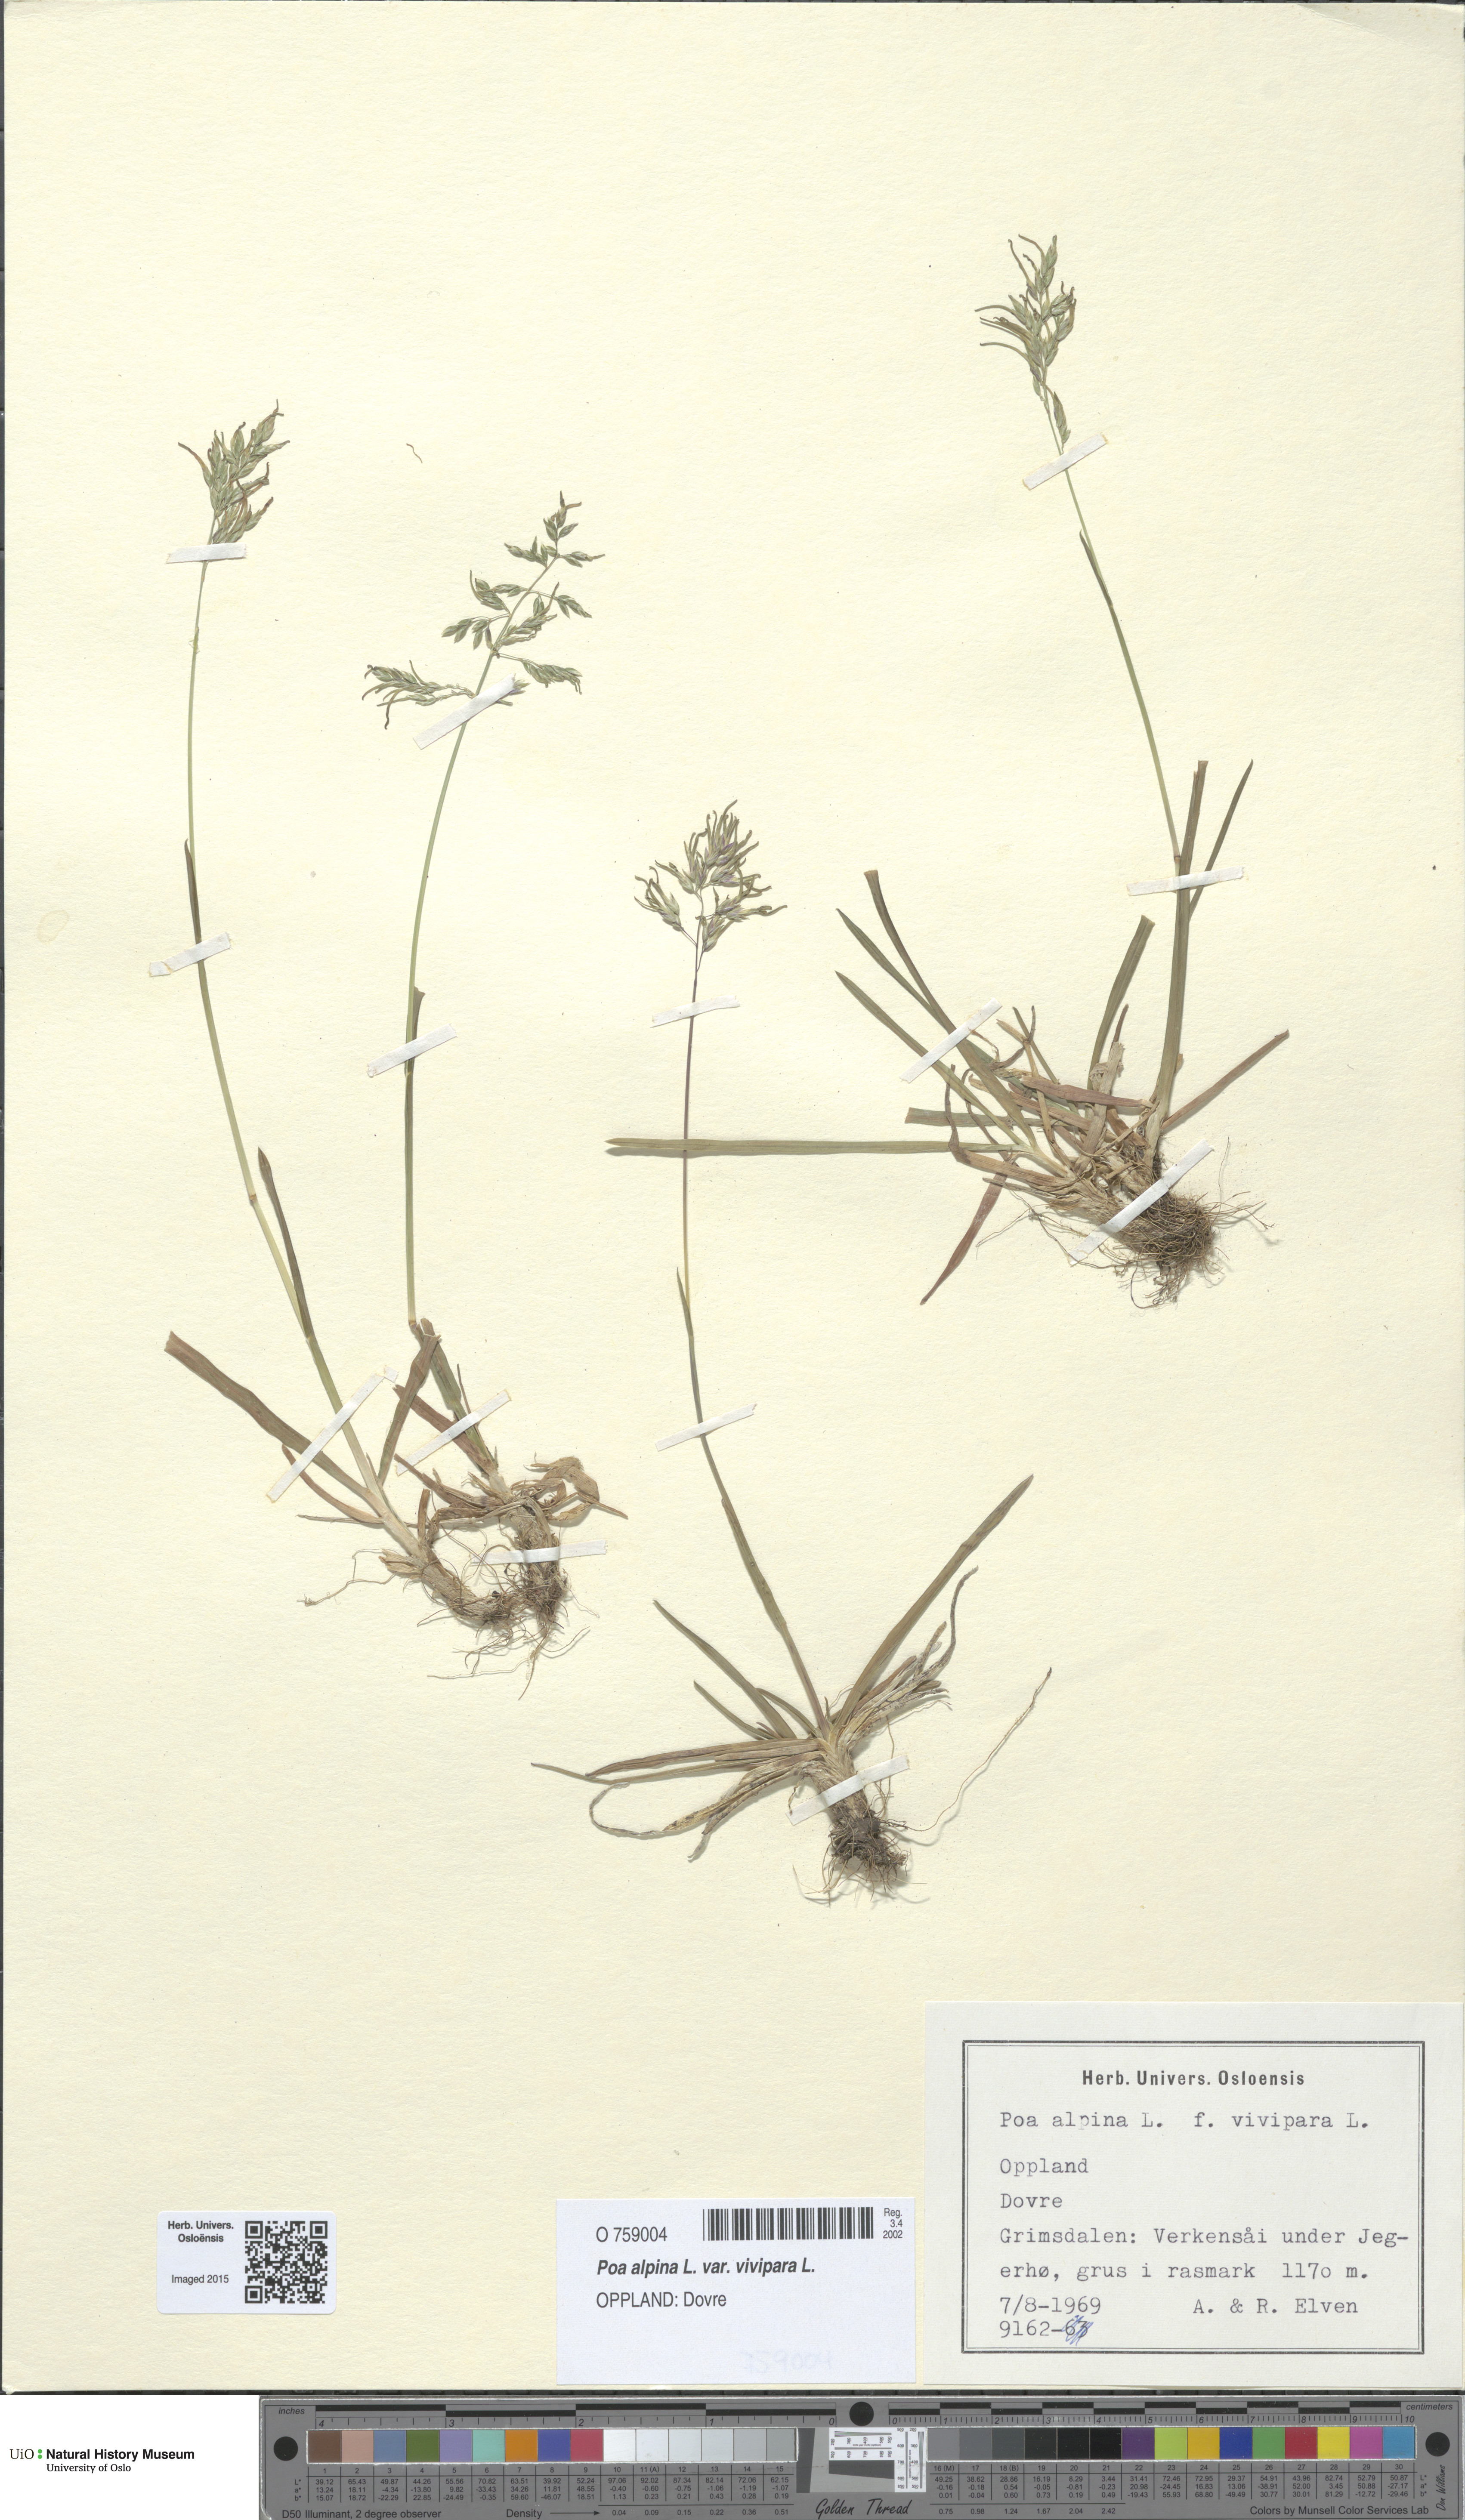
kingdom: Plantae
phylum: Tracheophyta
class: Liliopsida
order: Poales
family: Poaceae
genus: Poa
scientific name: Poa alpina
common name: Alpine bluegrass
